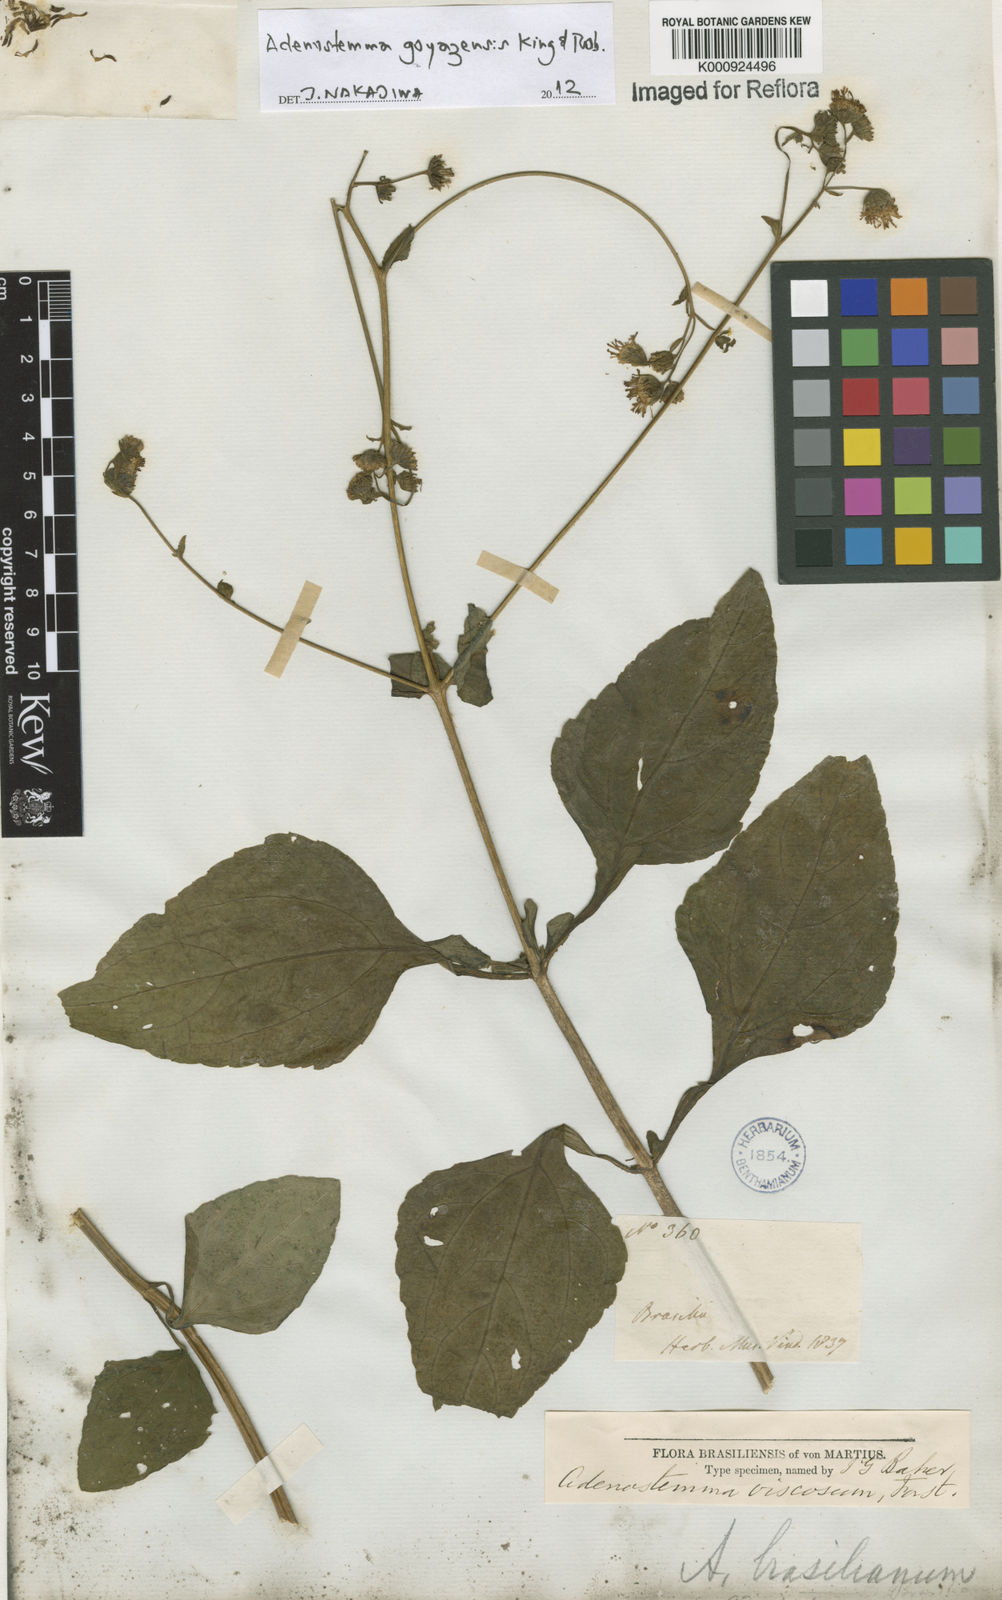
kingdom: Plantae
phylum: Tracheophyta
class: Magnoliopsida
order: Asterales
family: Asteraceae
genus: Adenostemma
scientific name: Adenostemma
